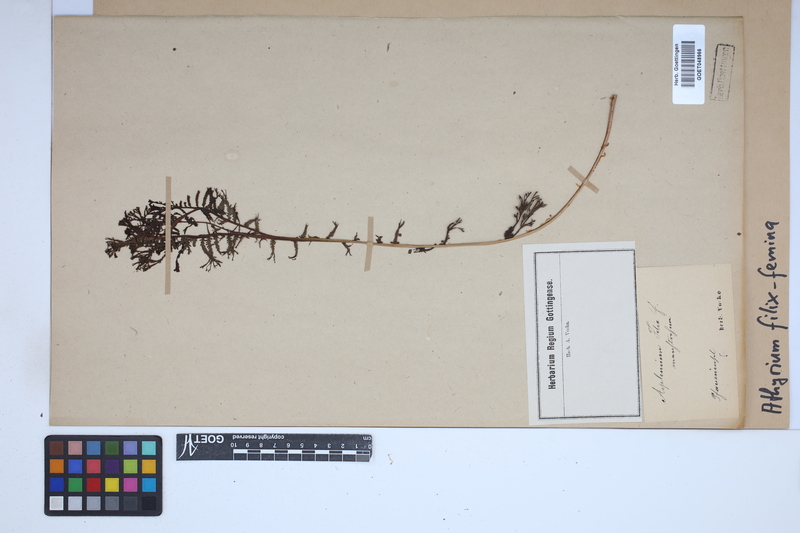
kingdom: Plantae
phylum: Tracheophyta
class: Polypodiopsida
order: Polypodiales
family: Athyriaceae
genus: Athyrium
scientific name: Athyrium filix-femina
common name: Lady fern
